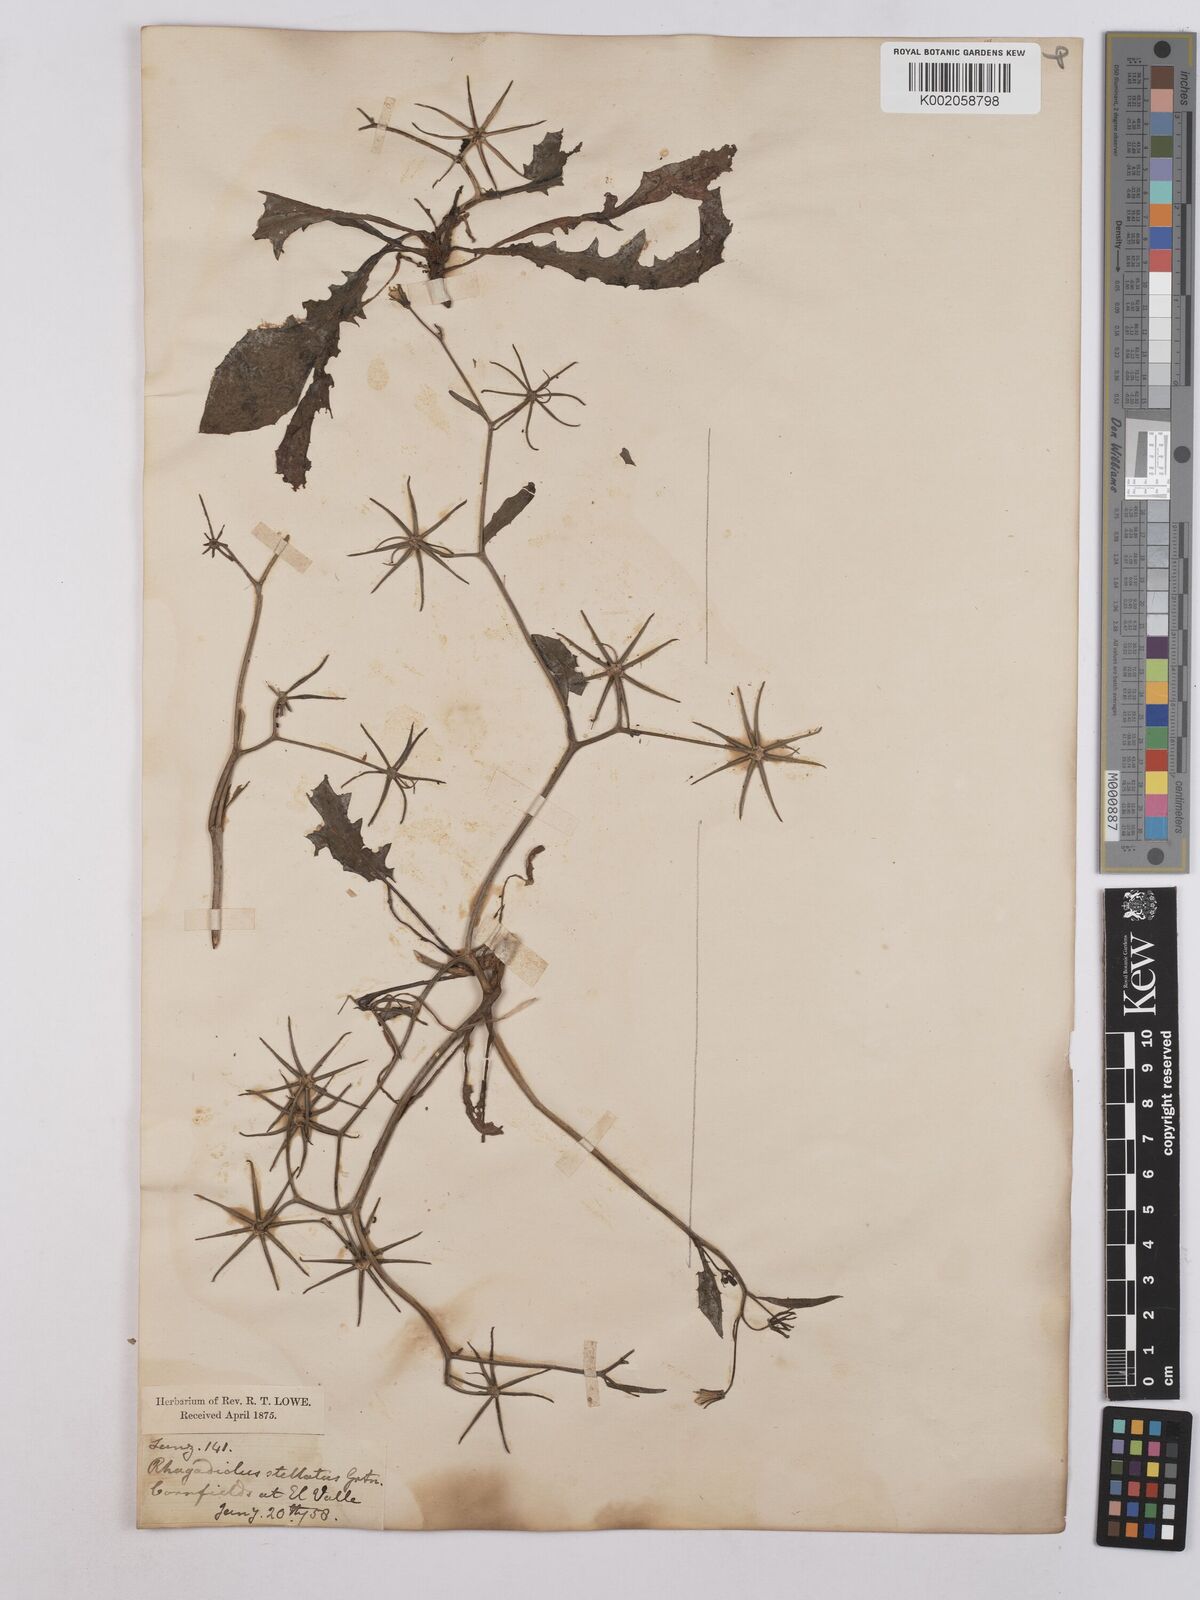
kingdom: Plantae
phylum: Tracheophyta
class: Magnoliopsida
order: Asterales
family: Asteraceae
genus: Rhagadiolus
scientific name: Rhagadiolus stellatus
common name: Star hawkbit
